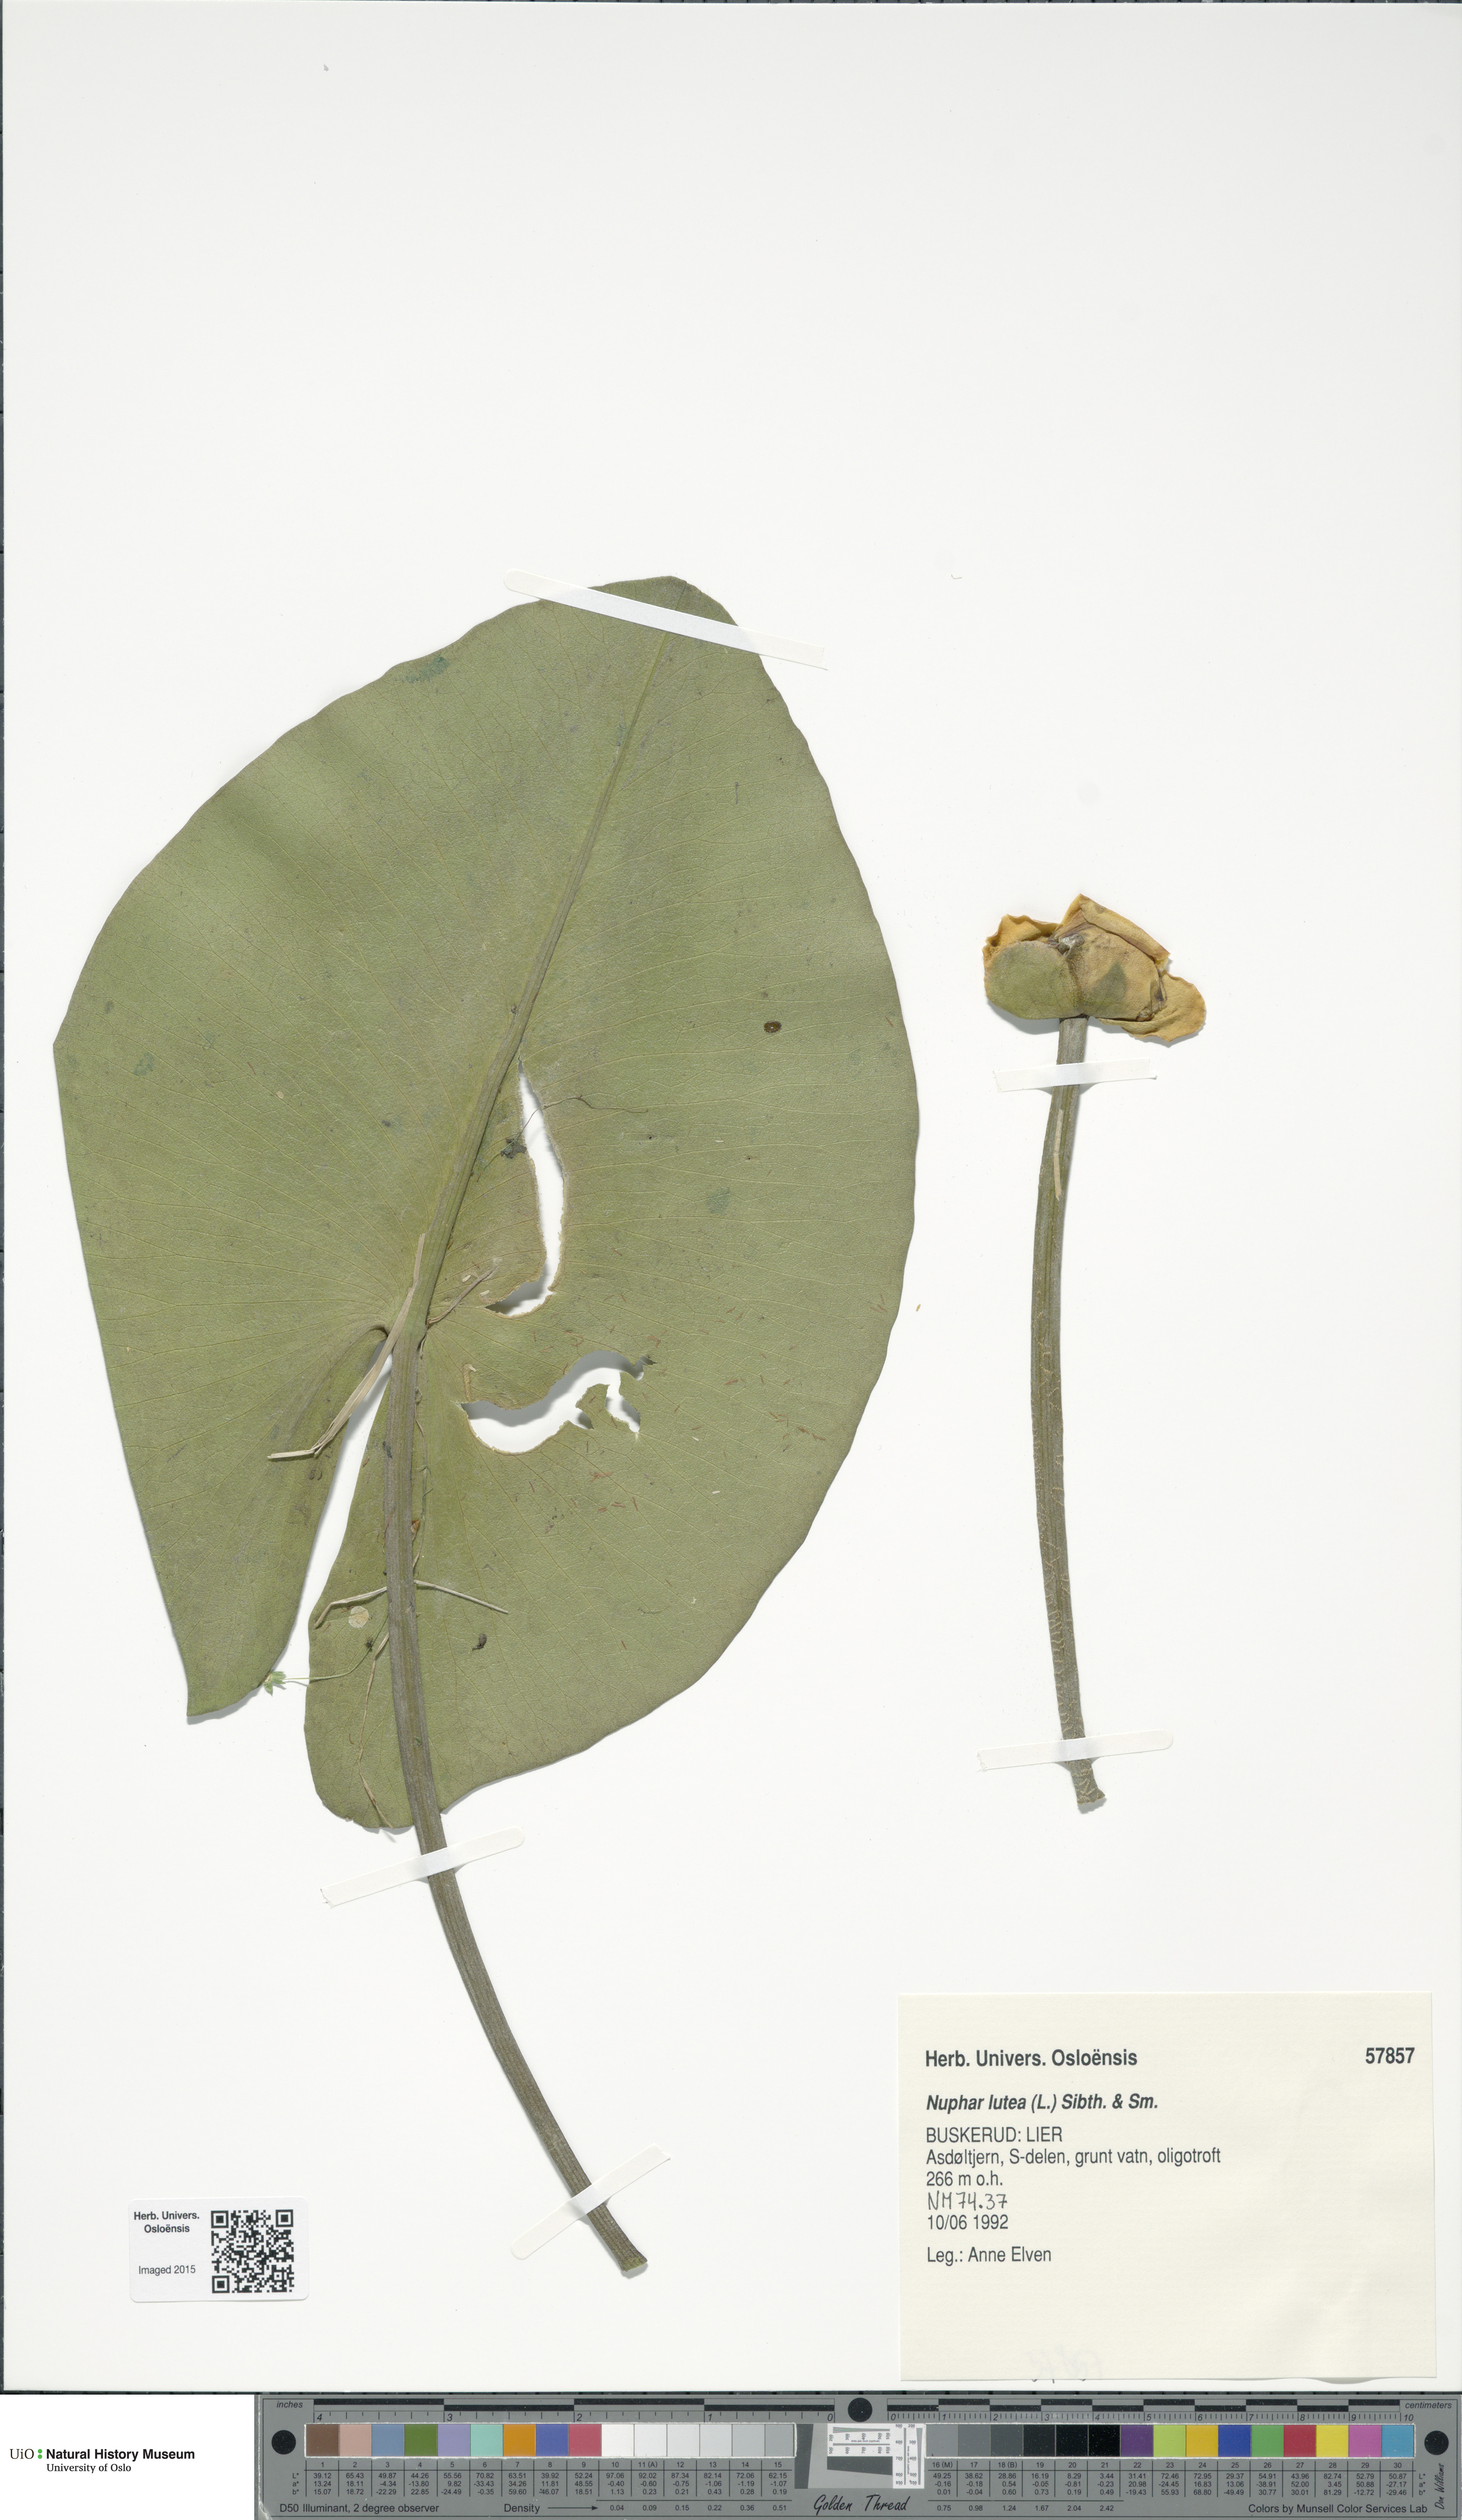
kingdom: Plantae
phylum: Tracheophyta
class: Magnoliopsida
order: Nymphaeales
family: Nymphaeaceae
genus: Nuphar
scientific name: Nuphar lutea
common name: Yellow water-lily
